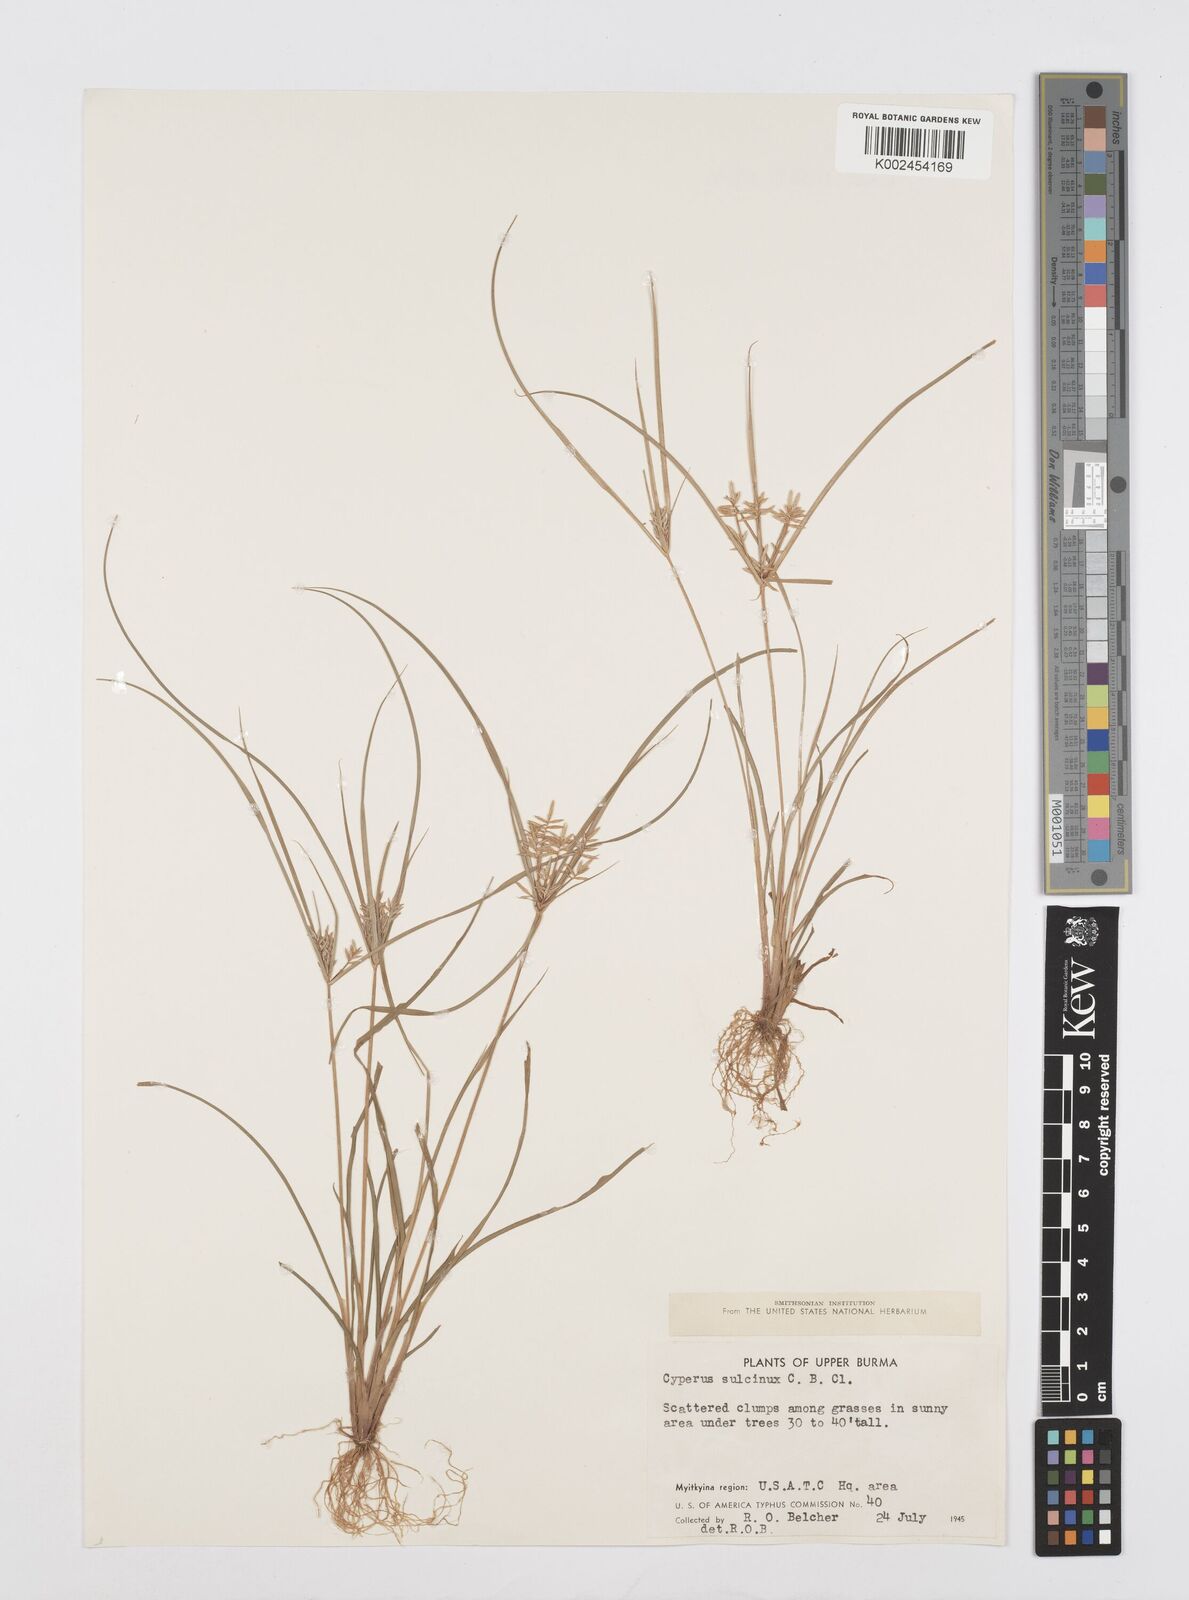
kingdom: Plantae
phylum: Tracheophyta
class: Liliopsida
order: Poales
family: Cyperaceae
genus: Cyperus
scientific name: Cyperus sulcinux
